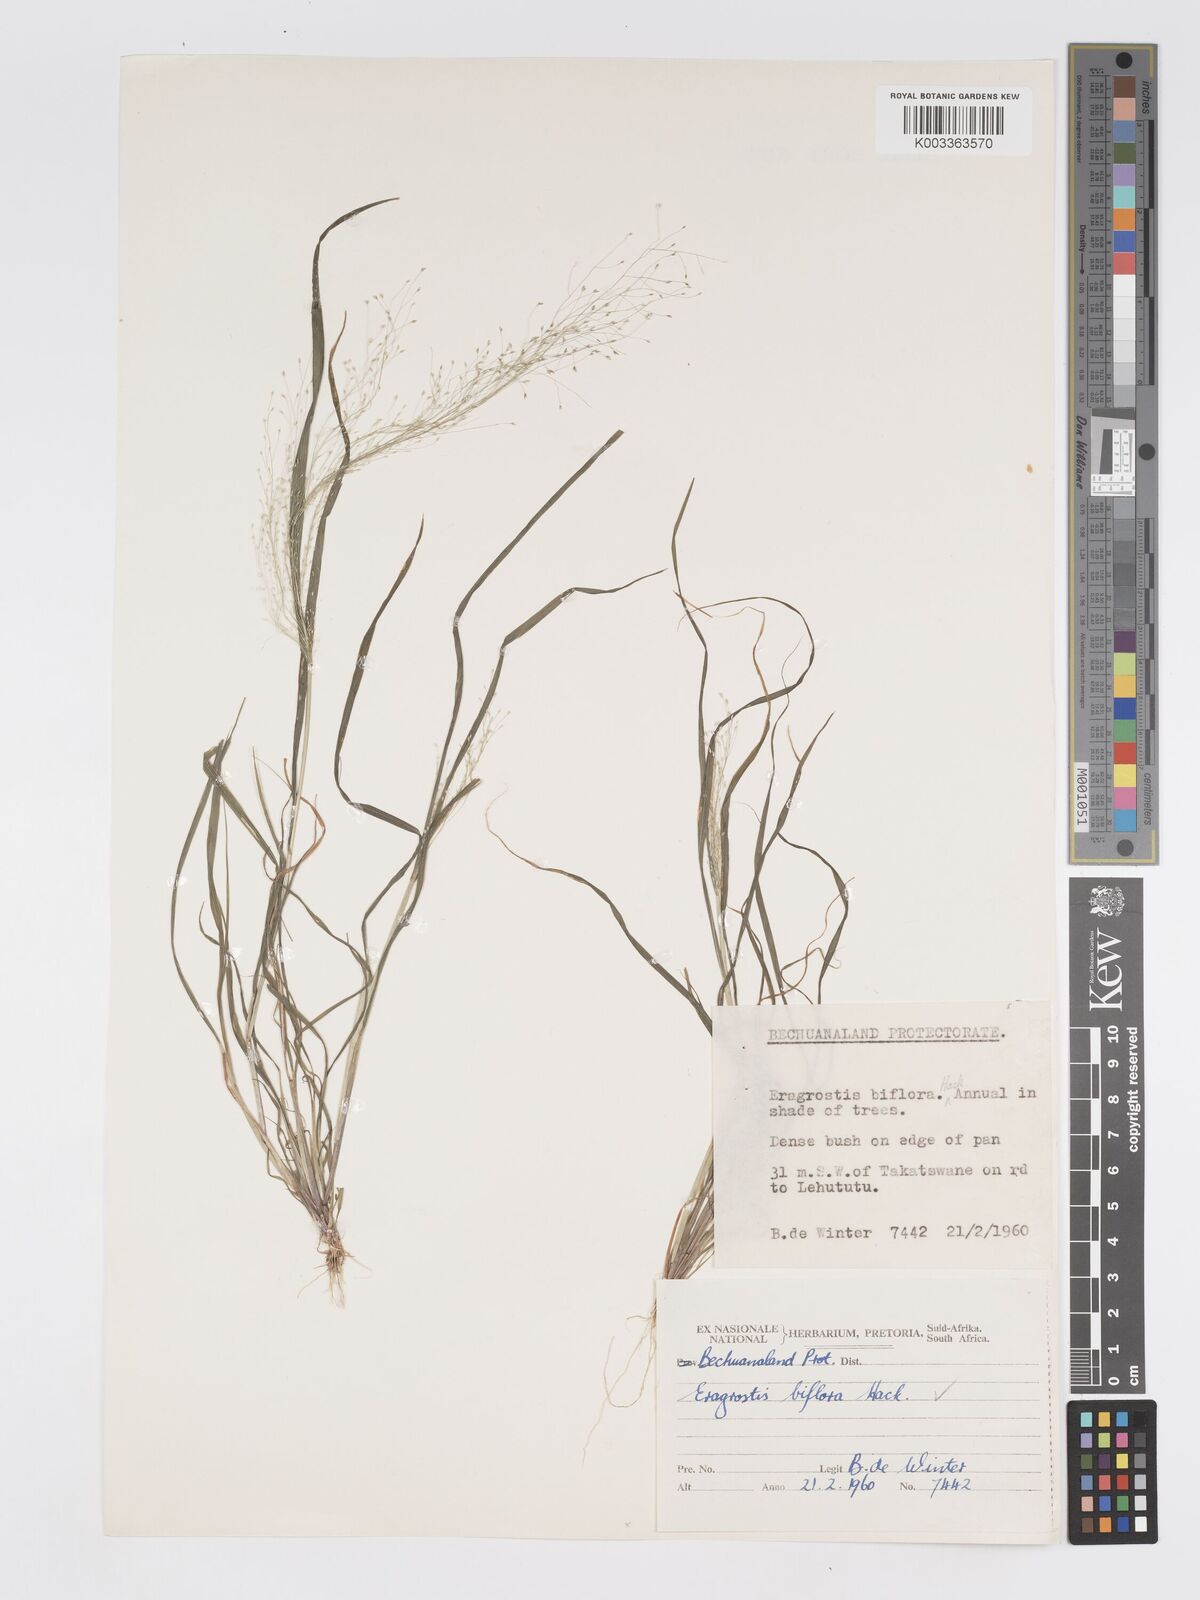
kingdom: Plantae
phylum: Tracheophyta
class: Liliopsida
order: Poales
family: Poaceae
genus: Eragrostis
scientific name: Eragrostis biflora
